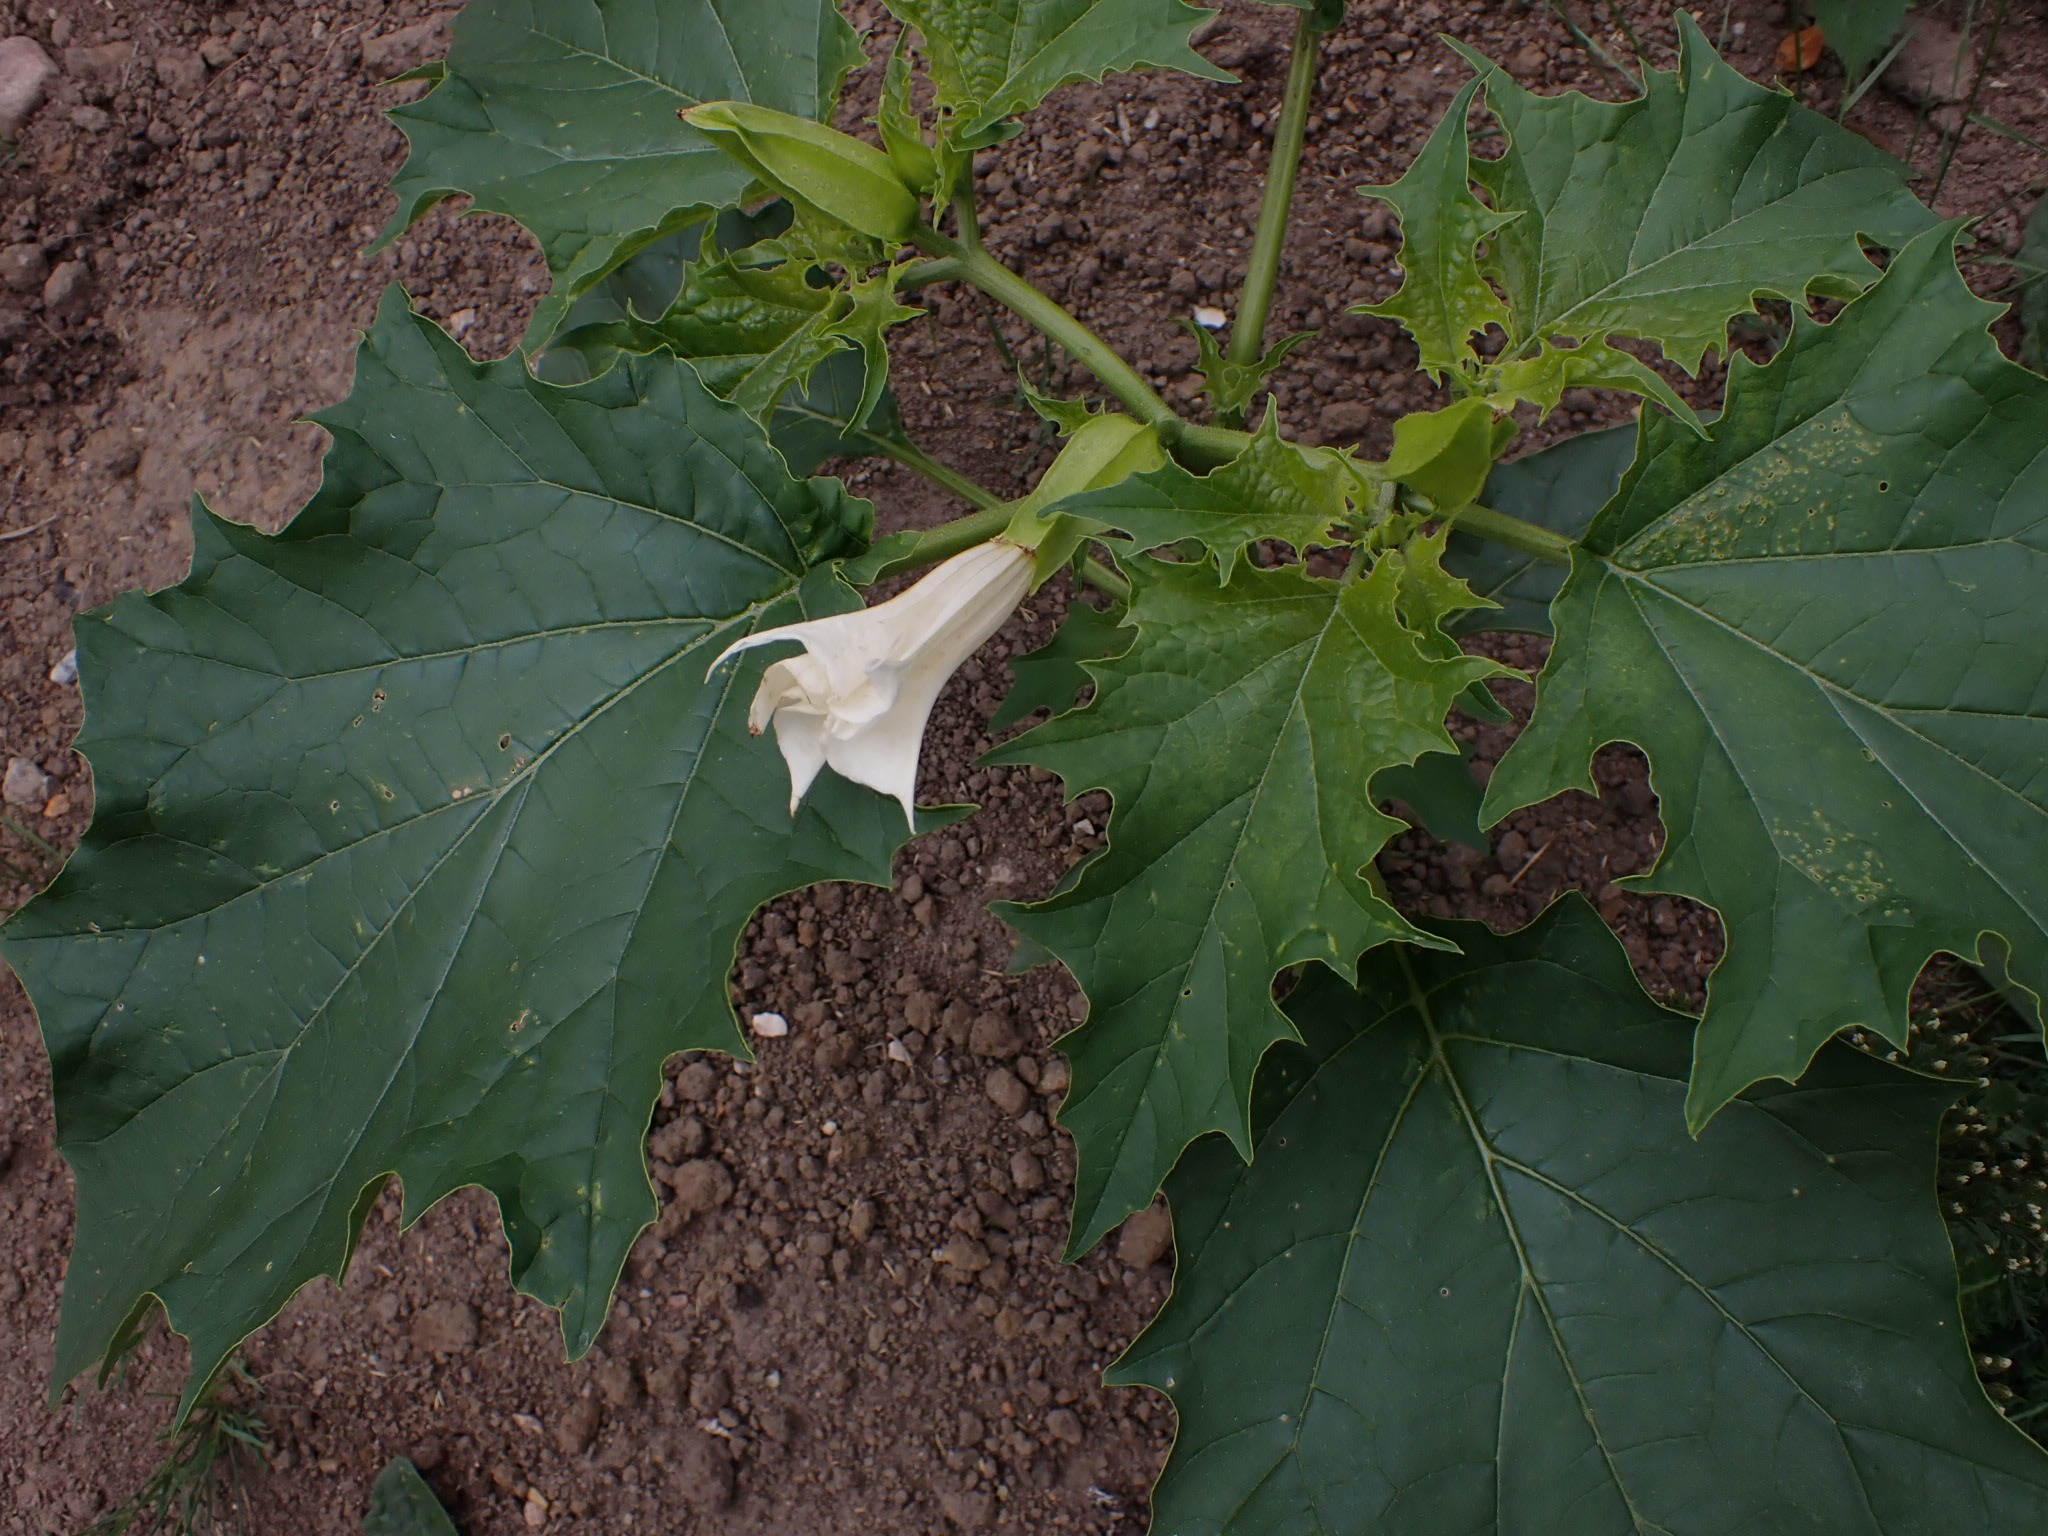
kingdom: Plantae
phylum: Tracheophyta
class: Magnoliopsida
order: Solanales
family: Solanaceae
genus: Datura
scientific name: Datura stramonium
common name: Pigæble
